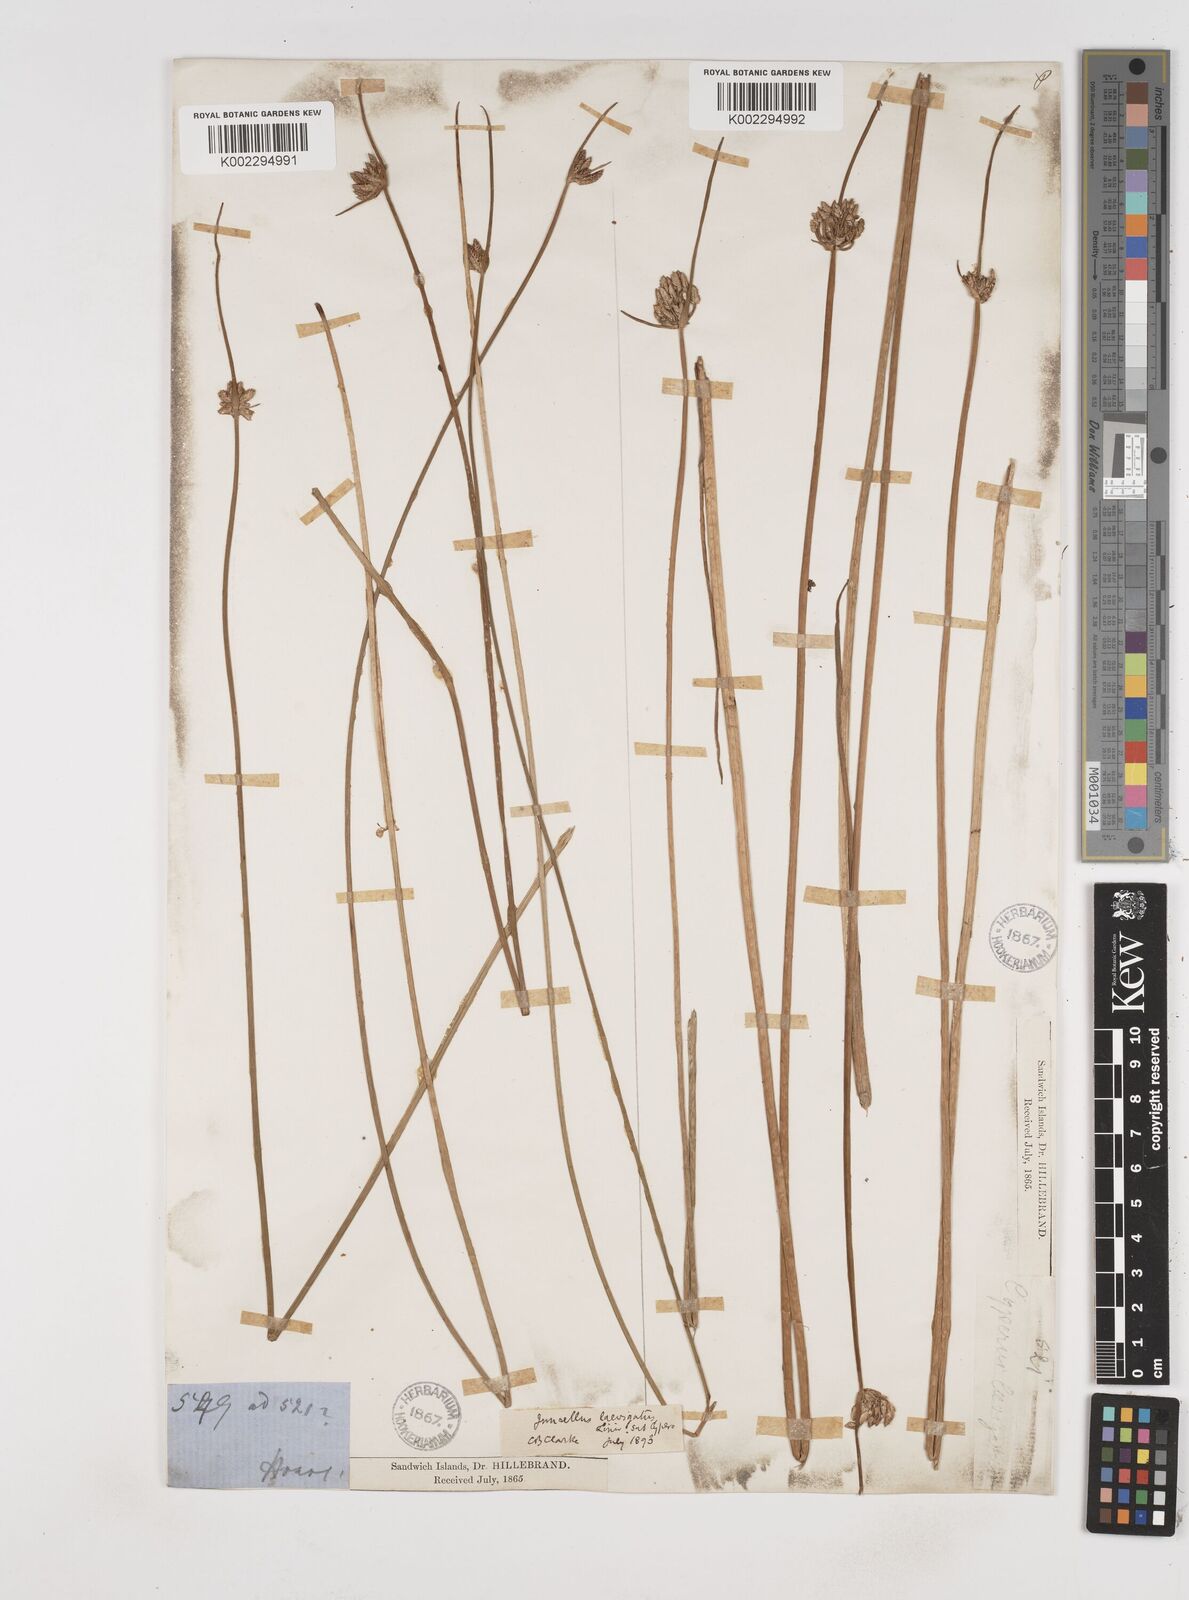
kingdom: Plantae
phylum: Tracheophyta
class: Liliopsida
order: Poales
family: Cyperaceae
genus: Cyperus
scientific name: Cyperus laevigatus
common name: Smooth flat sedge
